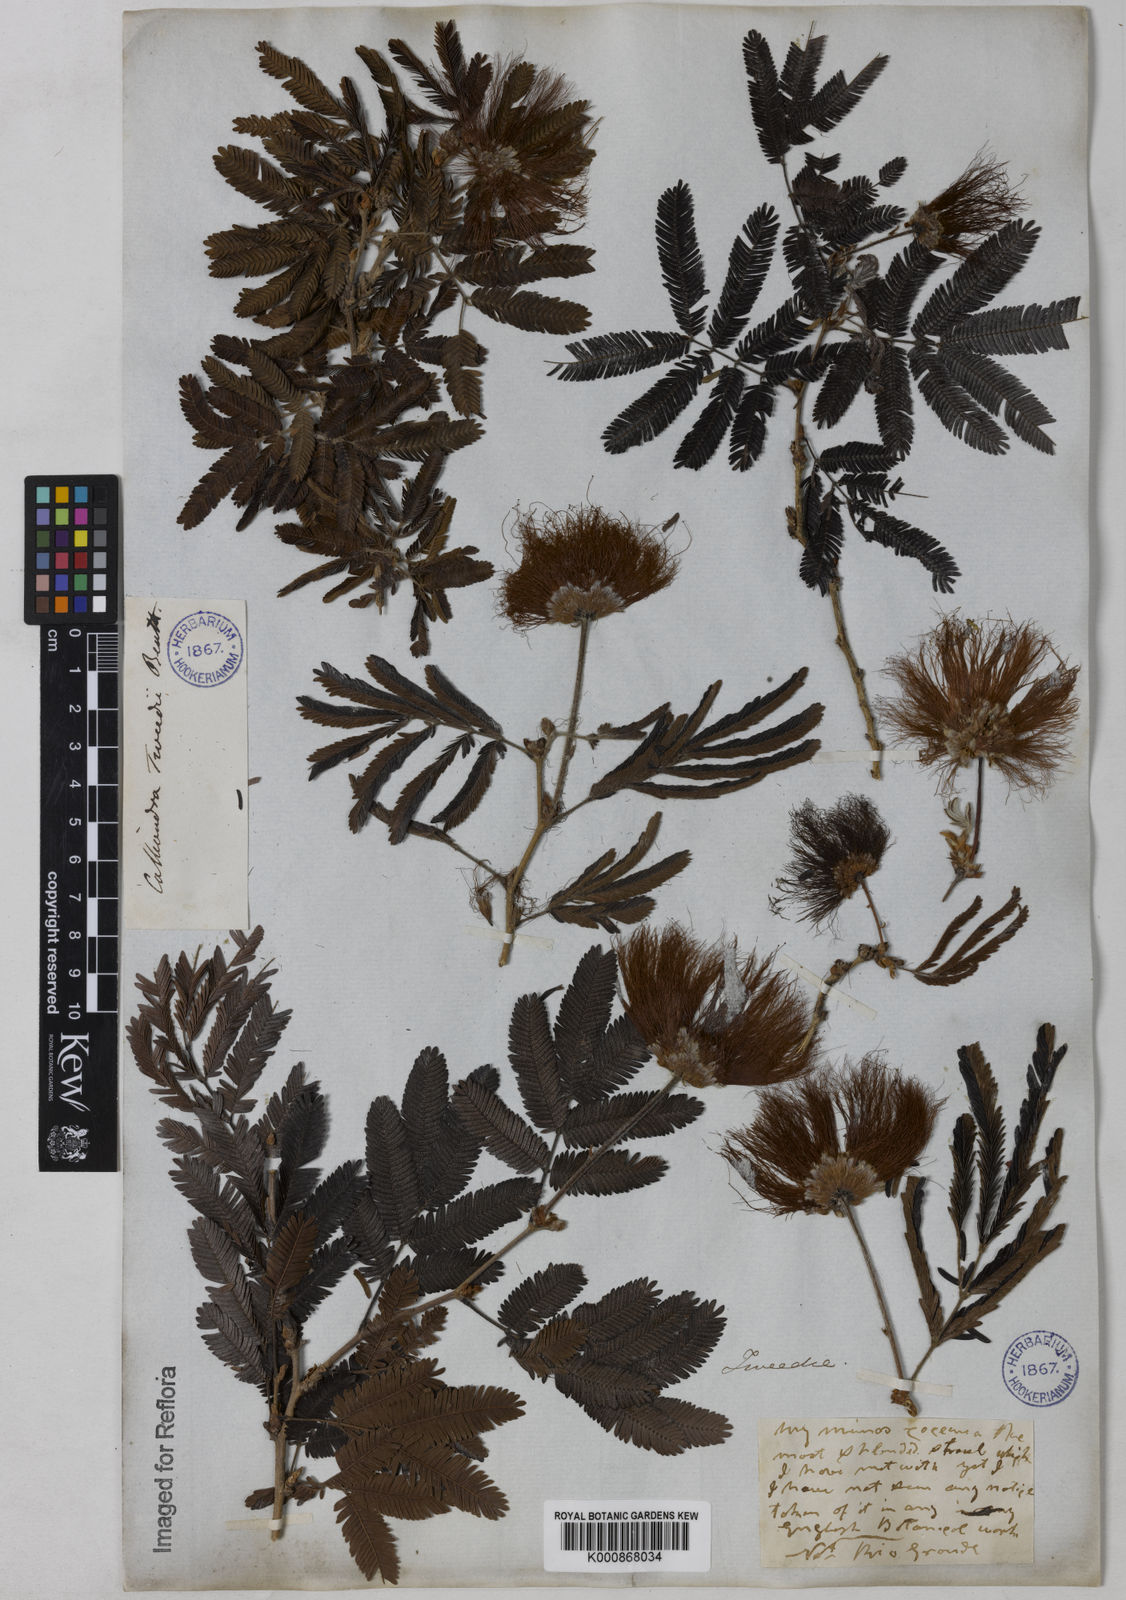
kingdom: Plantae
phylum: Tracheophyta
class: Magnoliopsida
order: Fabales
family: Fabaceae
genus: Calliandra
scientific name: Calliandra tweediei
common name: Mexican flamebush
